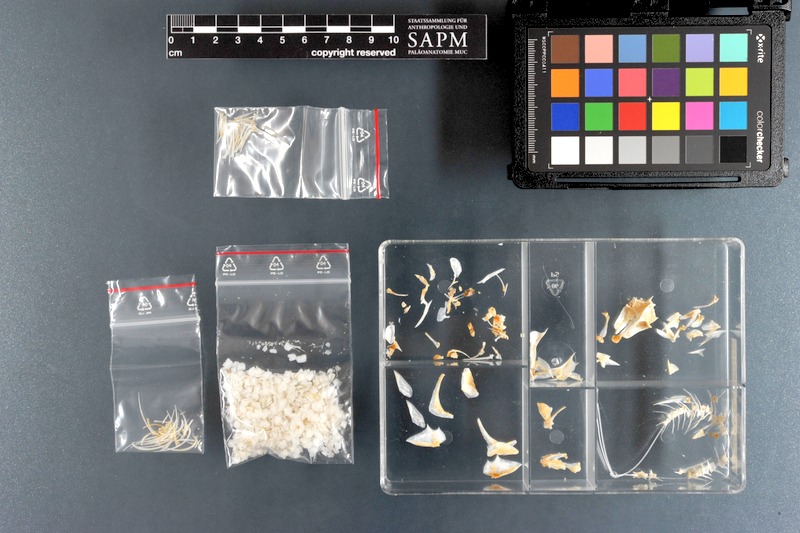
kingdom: Animalia
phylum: Chordata
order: Perciformes
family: Chaetodontidae
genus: Chaetodon
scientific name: Chaetodon austriacus
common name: Exquisite butterflyfish
